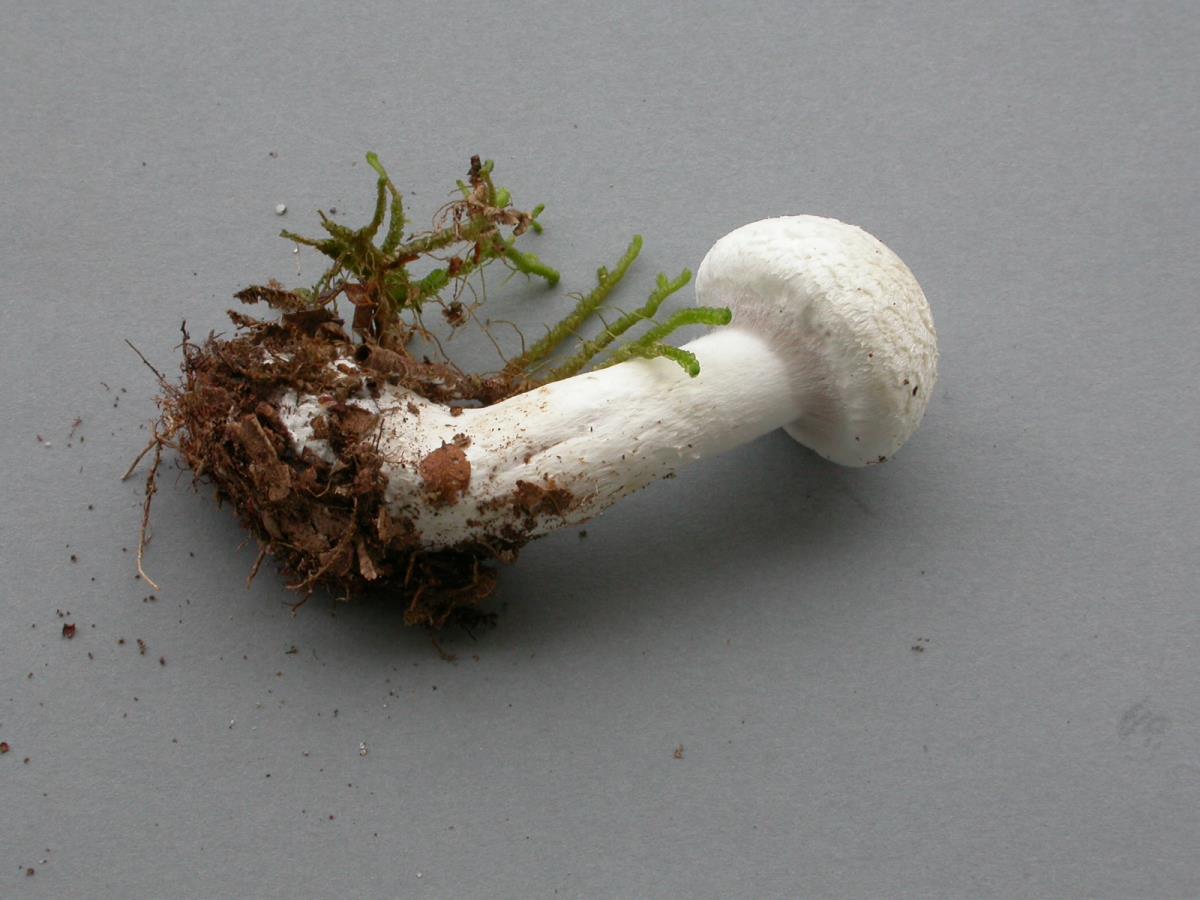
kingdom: Fungi
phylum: Basidiomycota
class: Agaricomycetes
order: Agaricales
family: Cortinariaceae
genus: Thaxterogaster
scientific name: Thaxterogaster mariae
